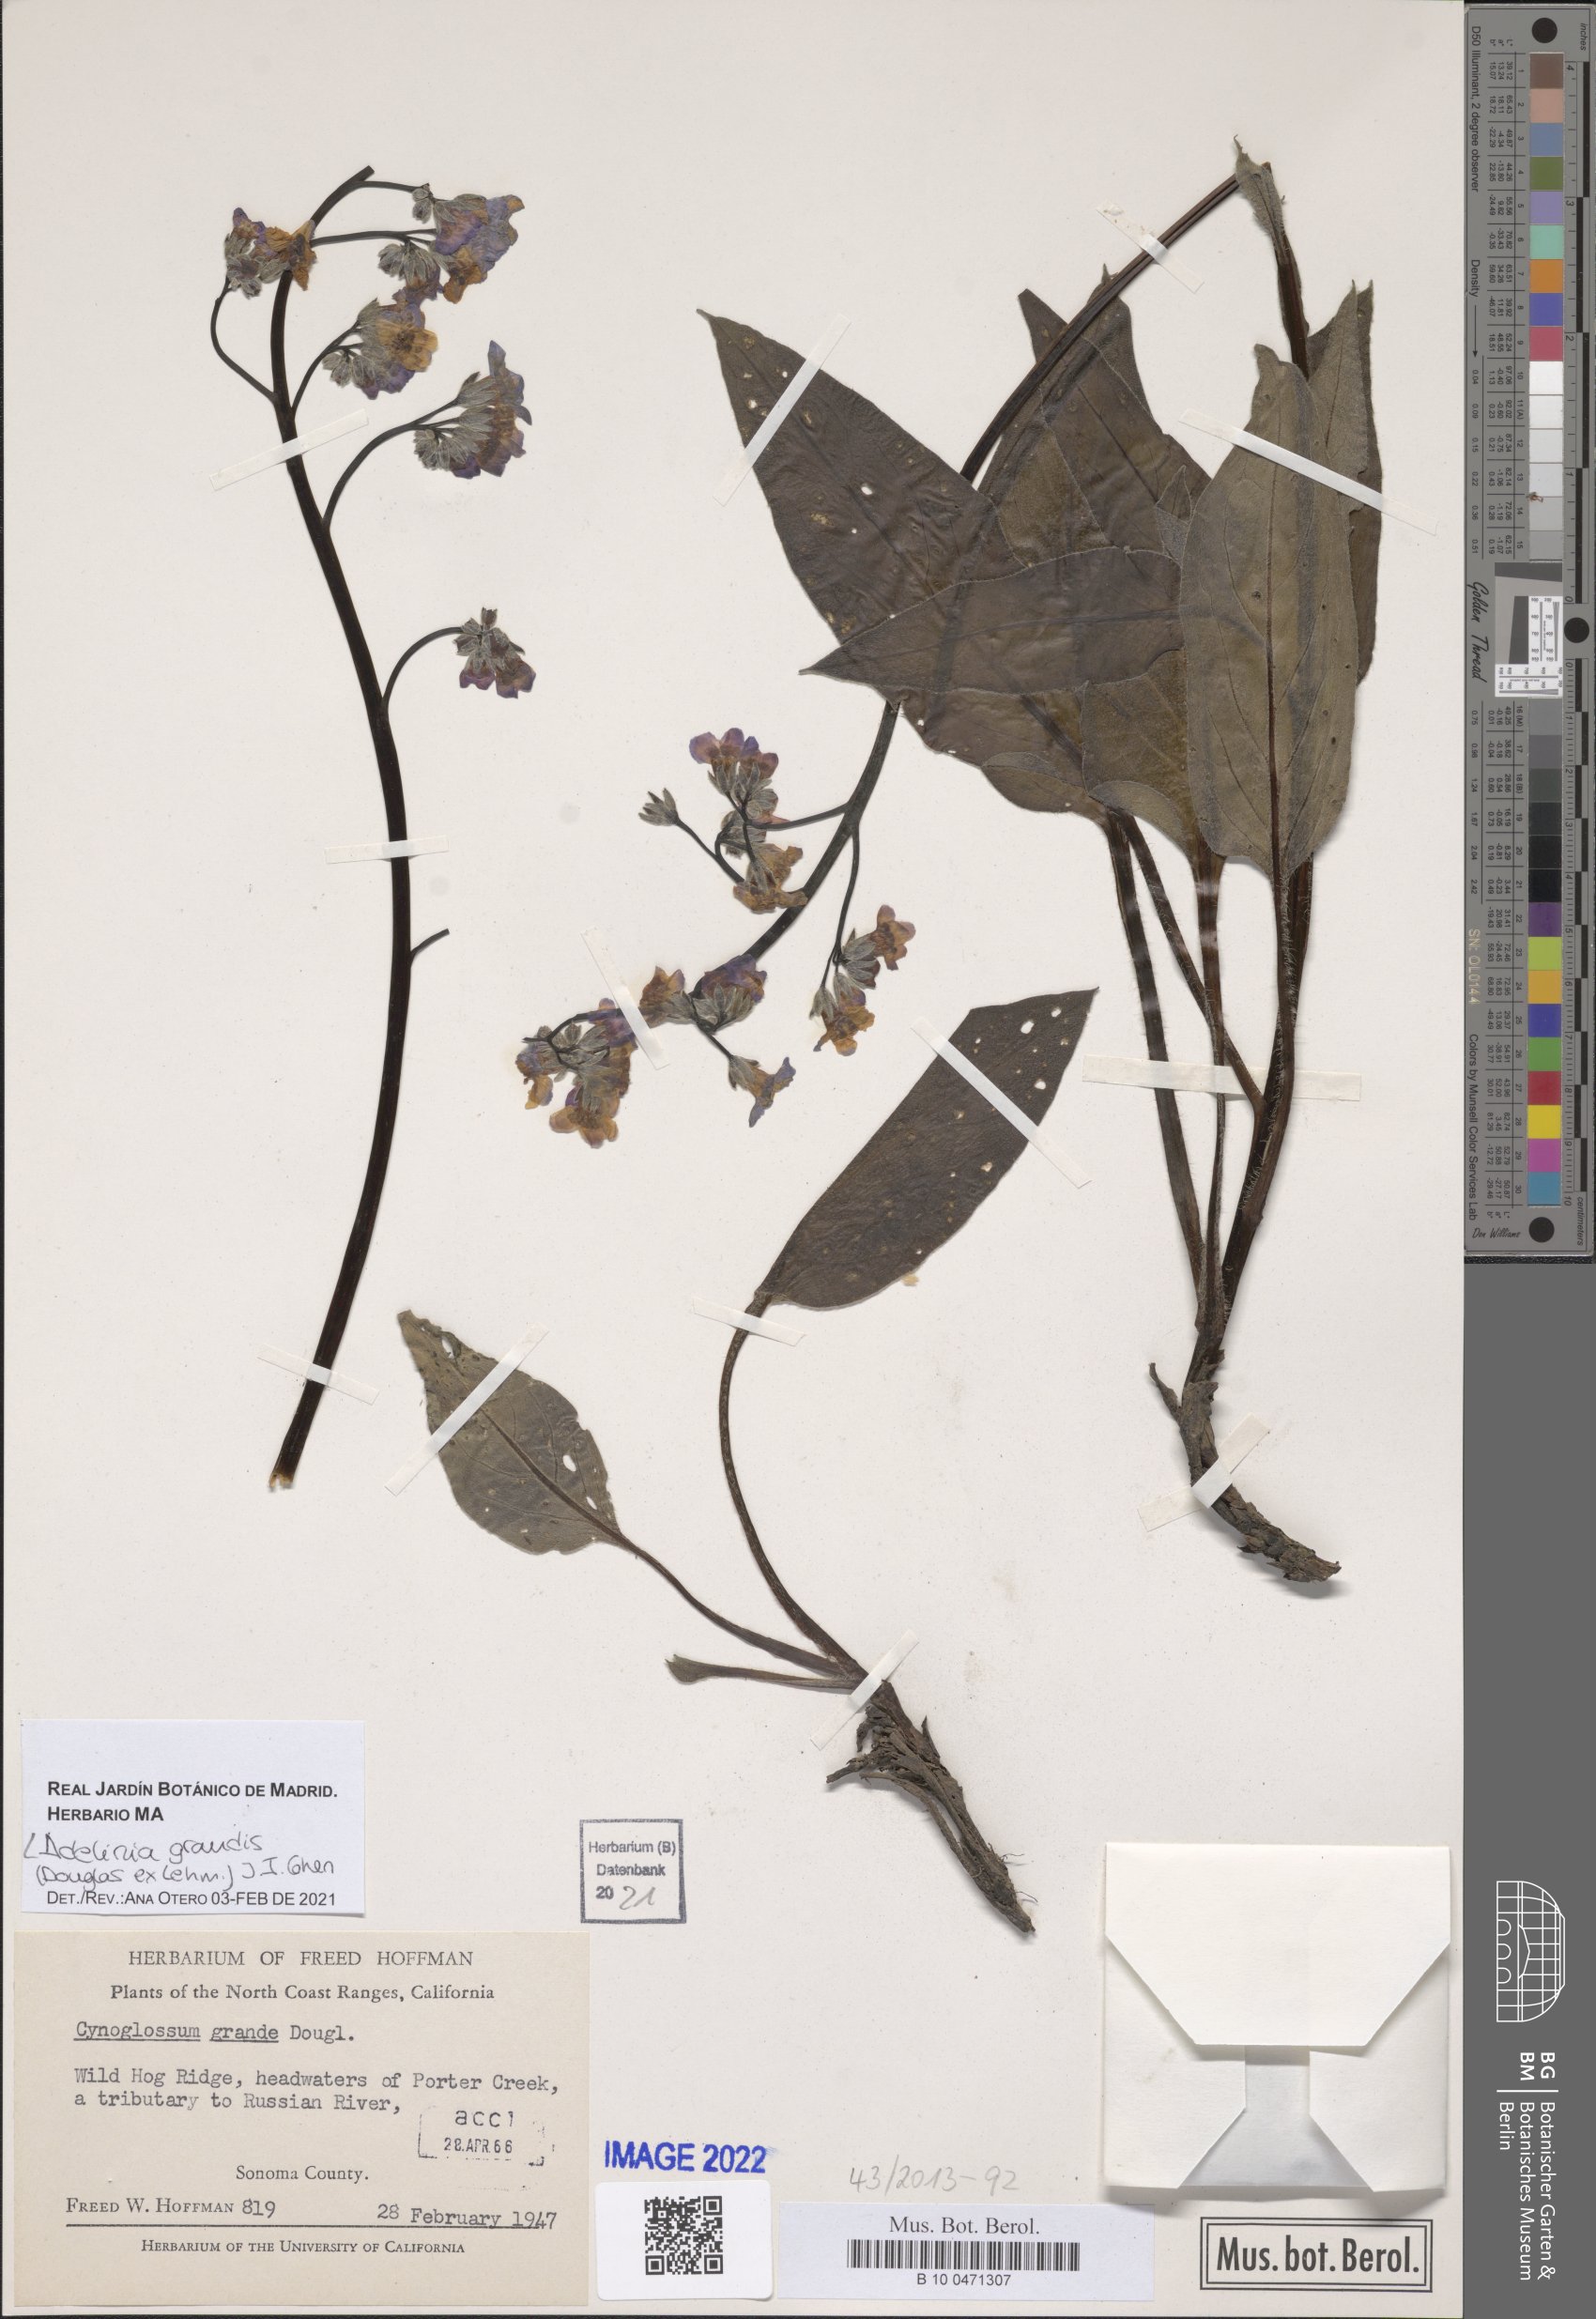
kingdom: Plantae
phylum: Tracheophyta
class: Magnoliopsida
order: Boraginales
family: Boraginaceae
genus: Adelinia
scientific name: Adelinia grande
